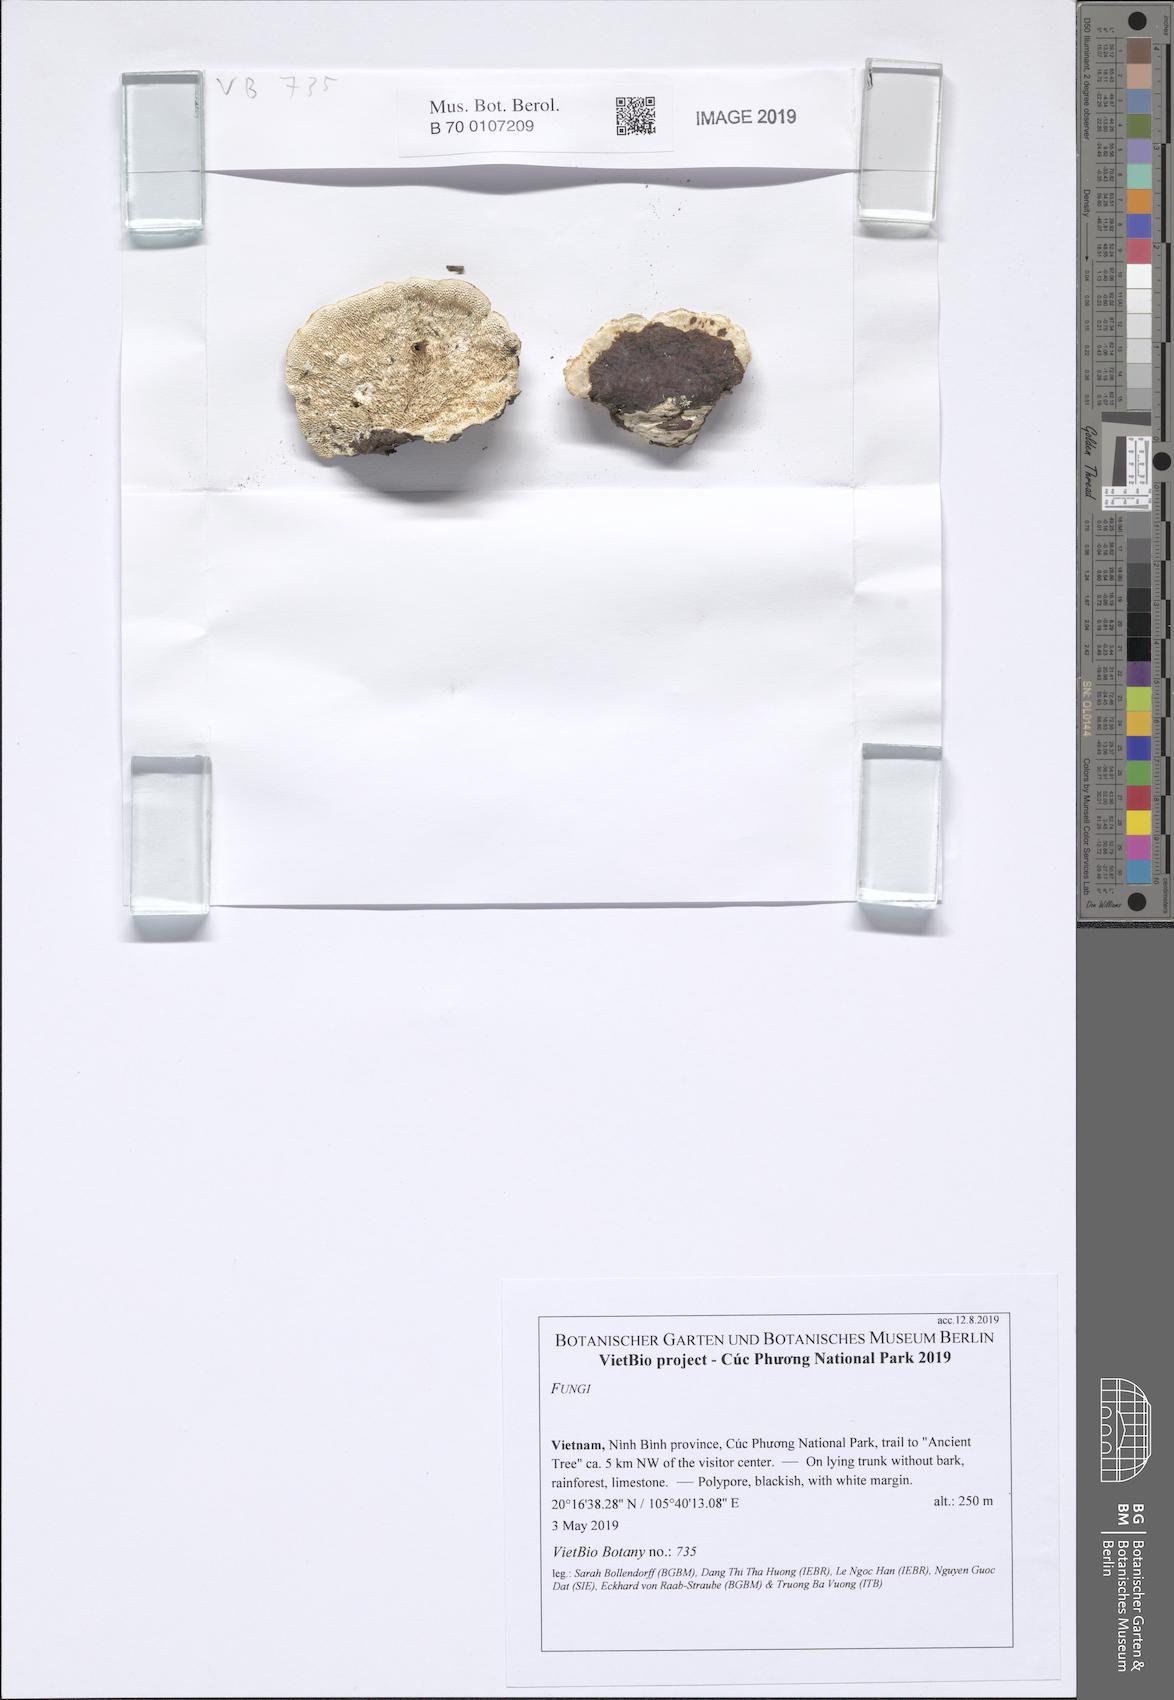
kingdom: Fungi
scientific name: Fungi
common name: Fungi
